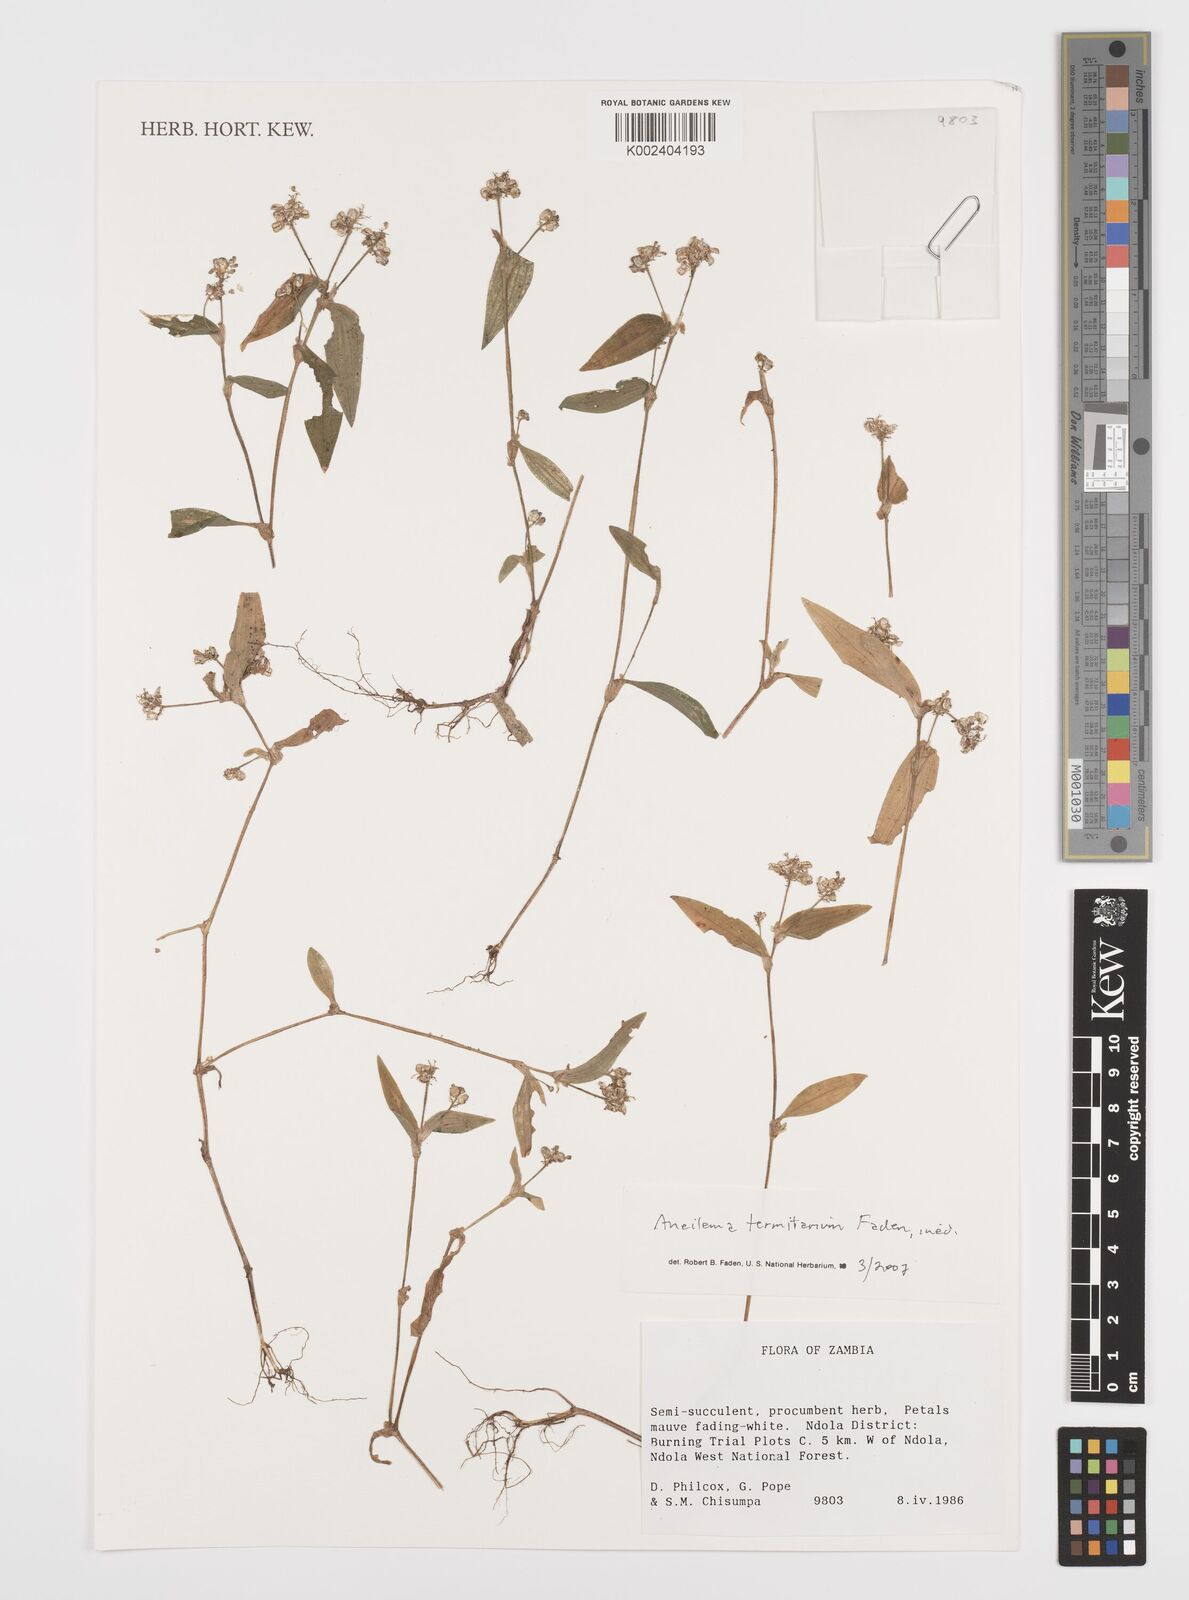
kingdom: Plantae
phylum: Tracheophyta
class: Liliopsida
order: Commelinales
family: Commelinaceae
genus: Aneilema
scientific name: Aneilema termitarium
